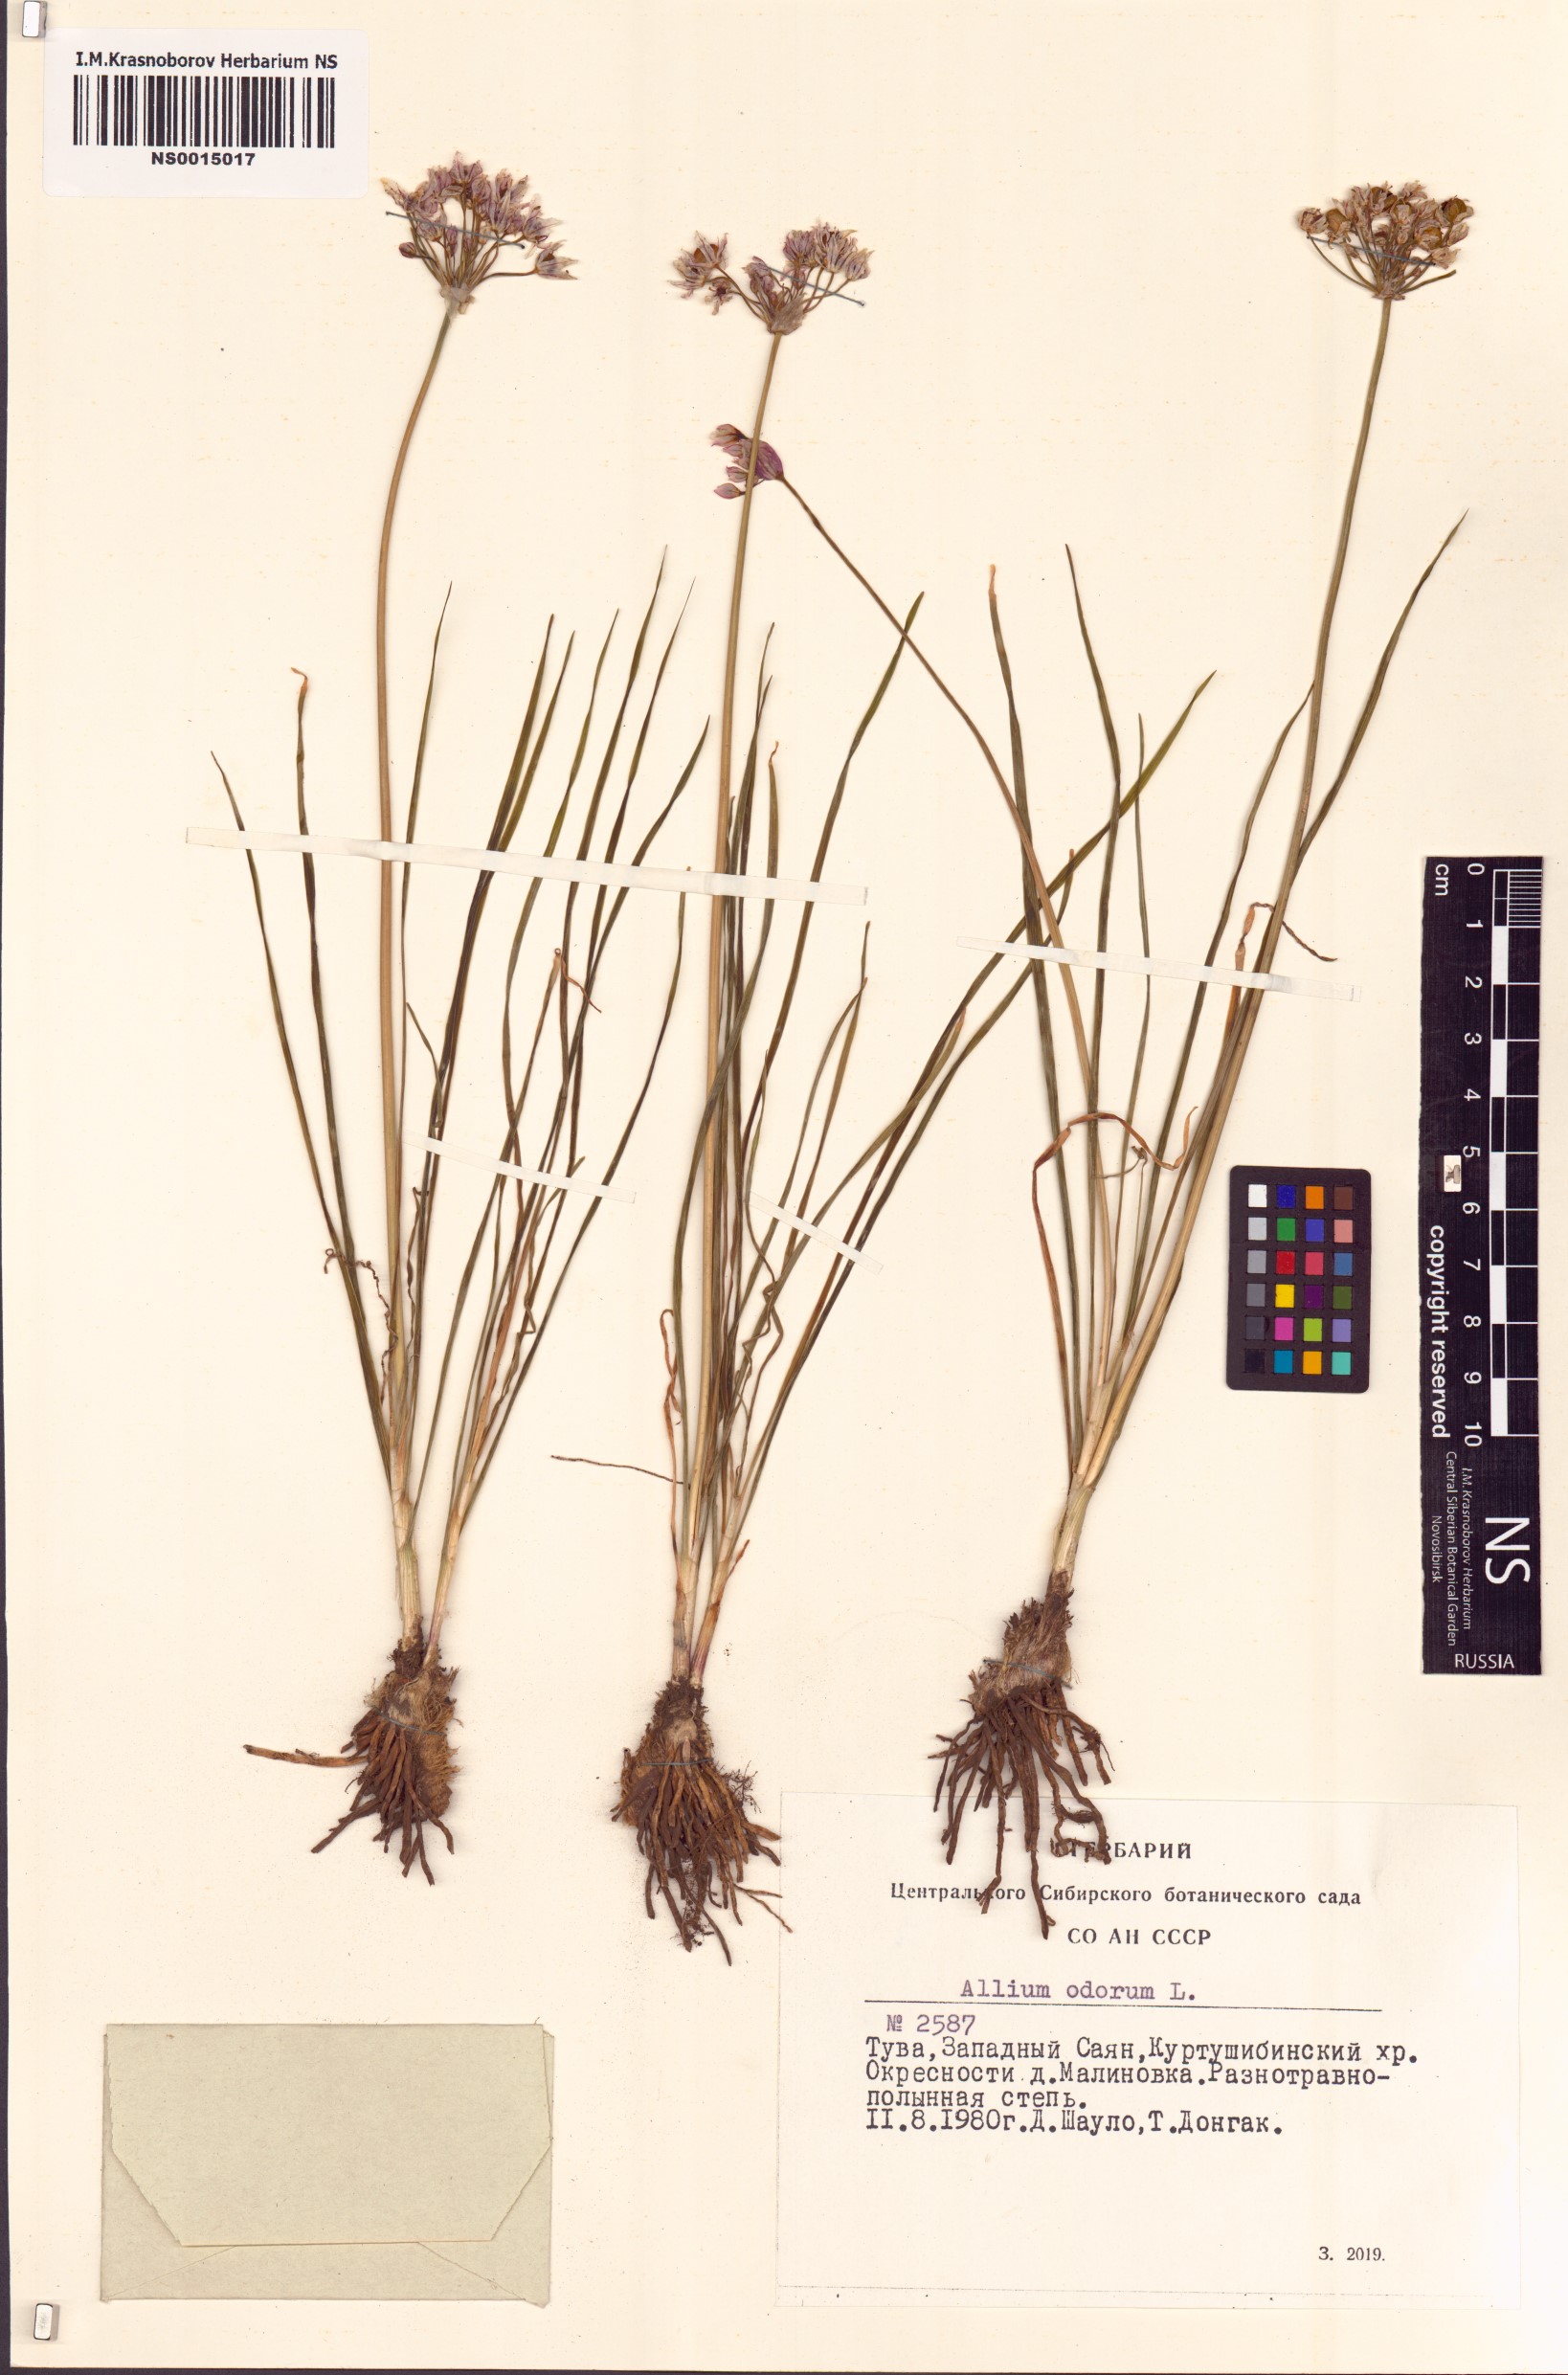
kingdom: Plantae
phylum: Tracheophyta
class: Liliopsida
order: Asparagales
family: Amaryllidaceae
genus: Allium
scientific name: Allium ramosum
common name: Fragrant garlic
